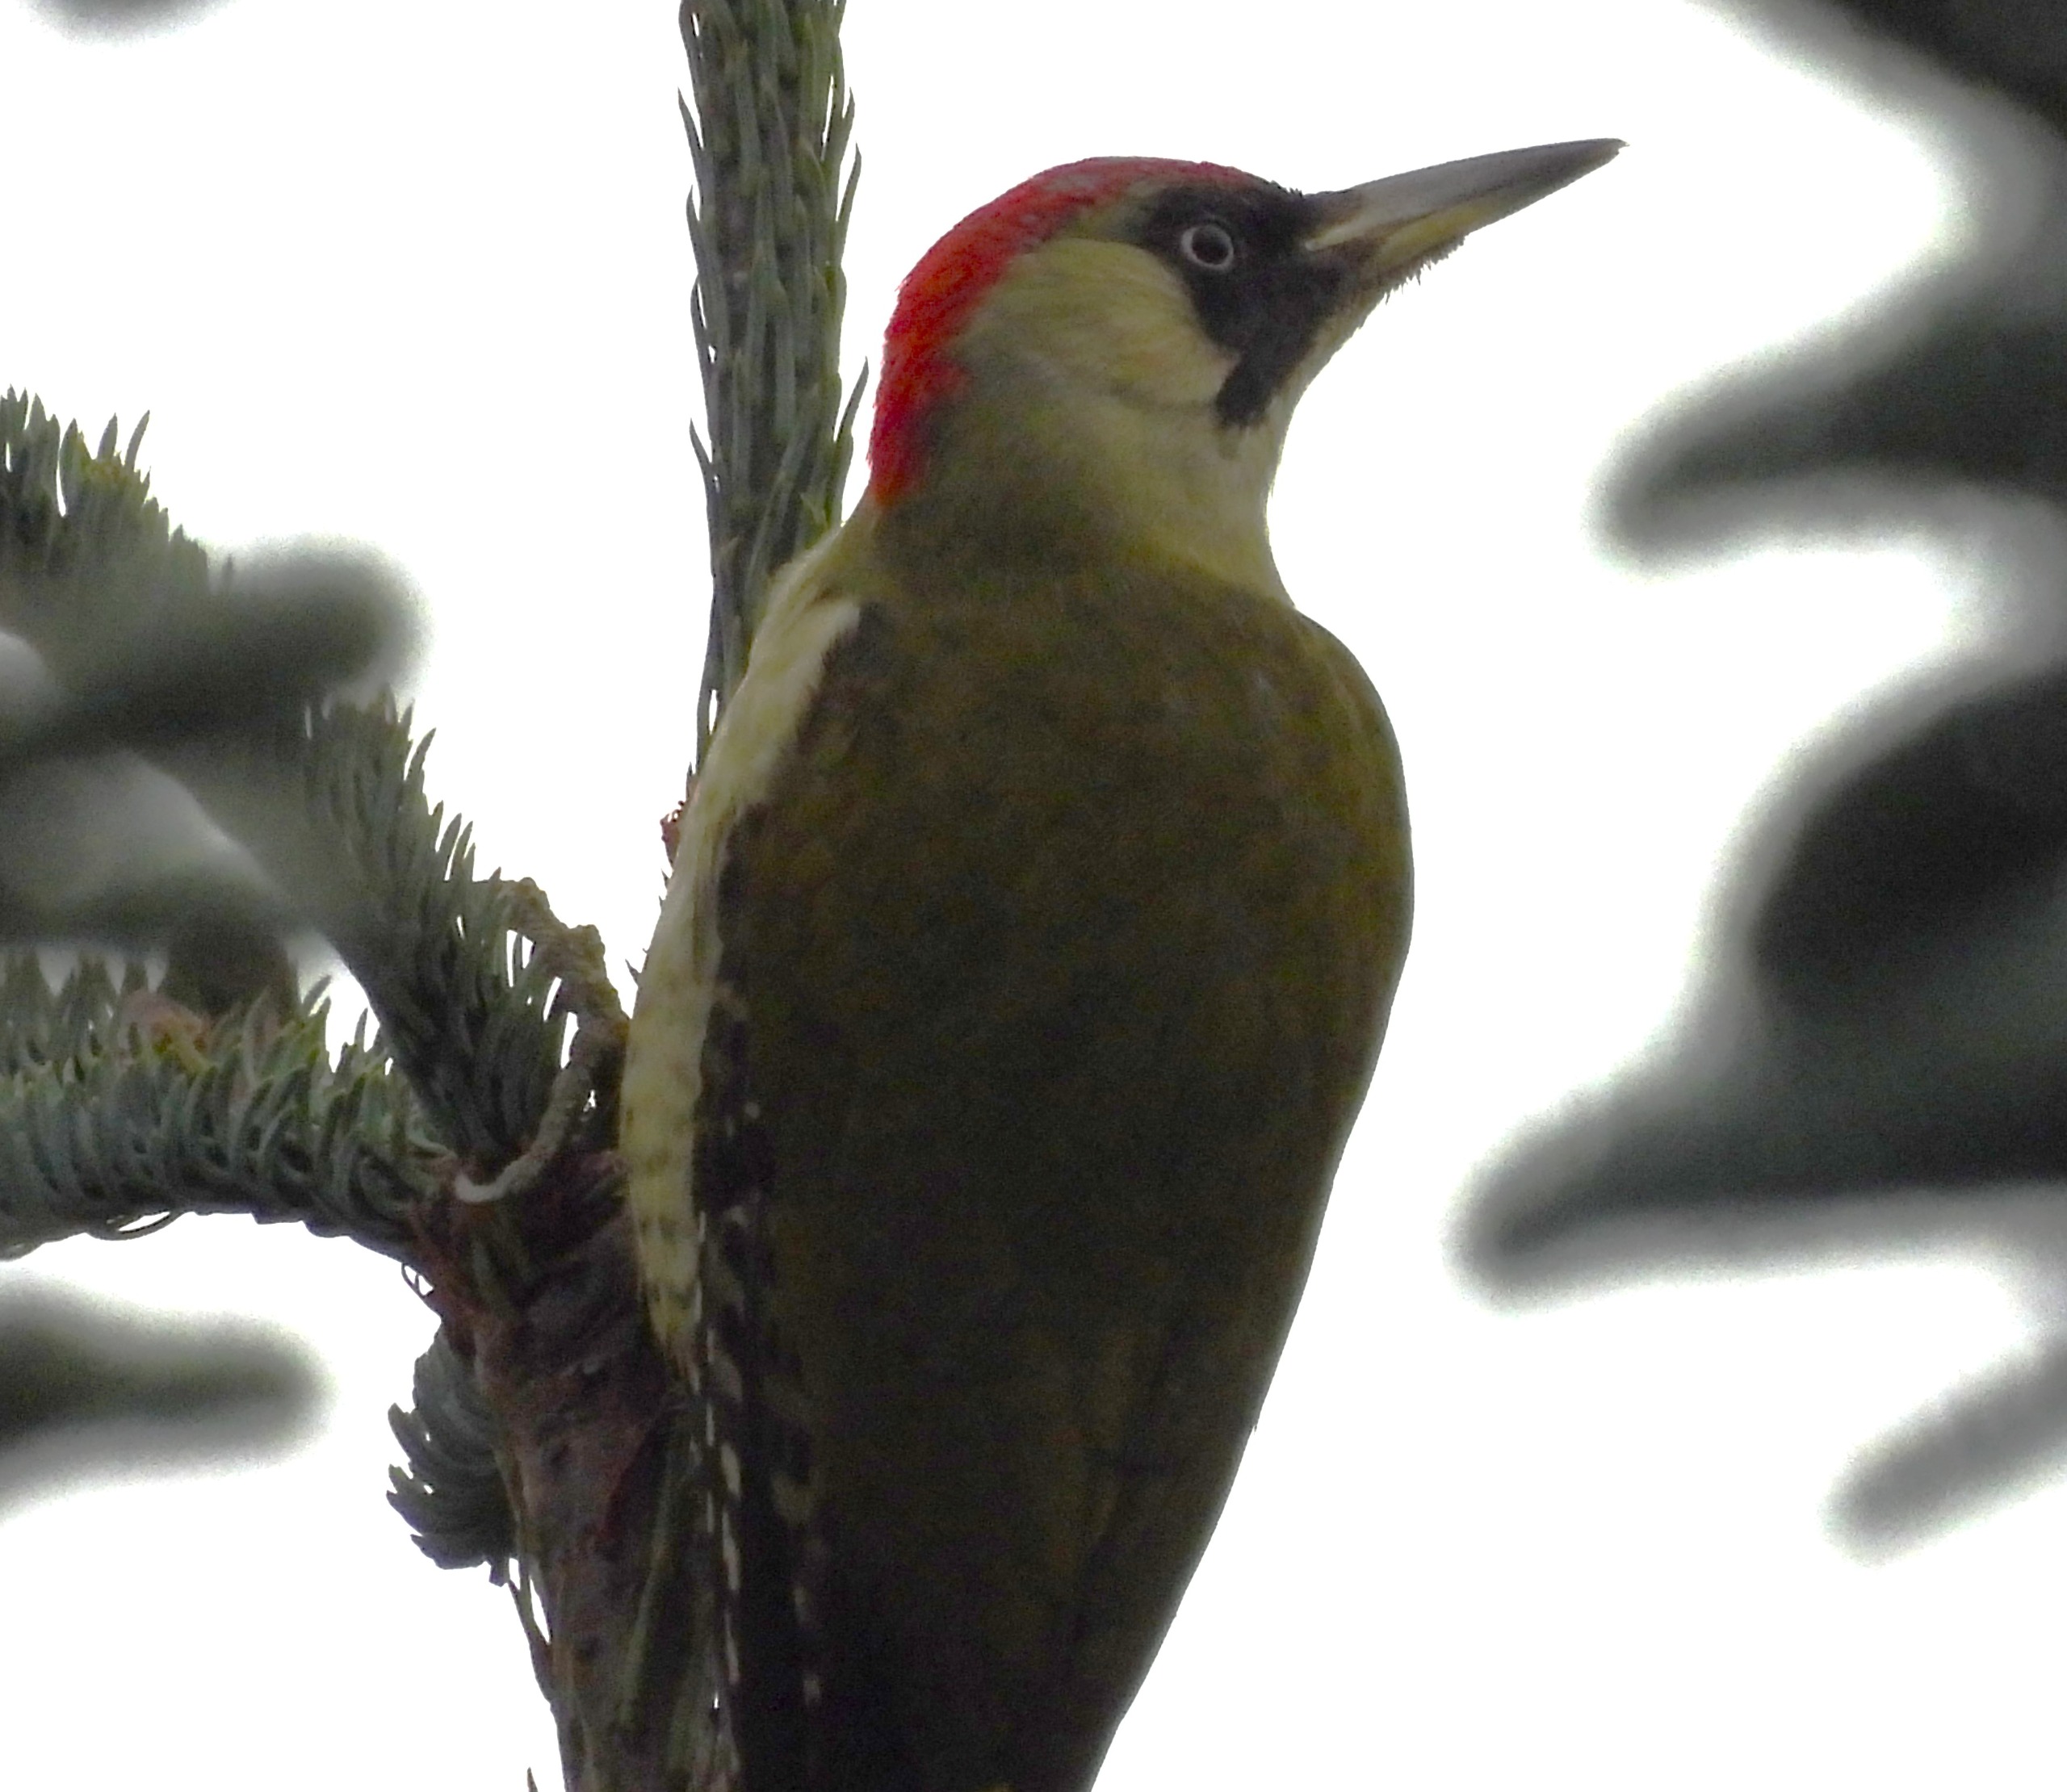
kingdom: Animalia
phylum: Chordata
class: Aves
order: Piciformes
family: Picidae
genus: Picus
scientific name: Picus viridis
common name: Grønspætte
